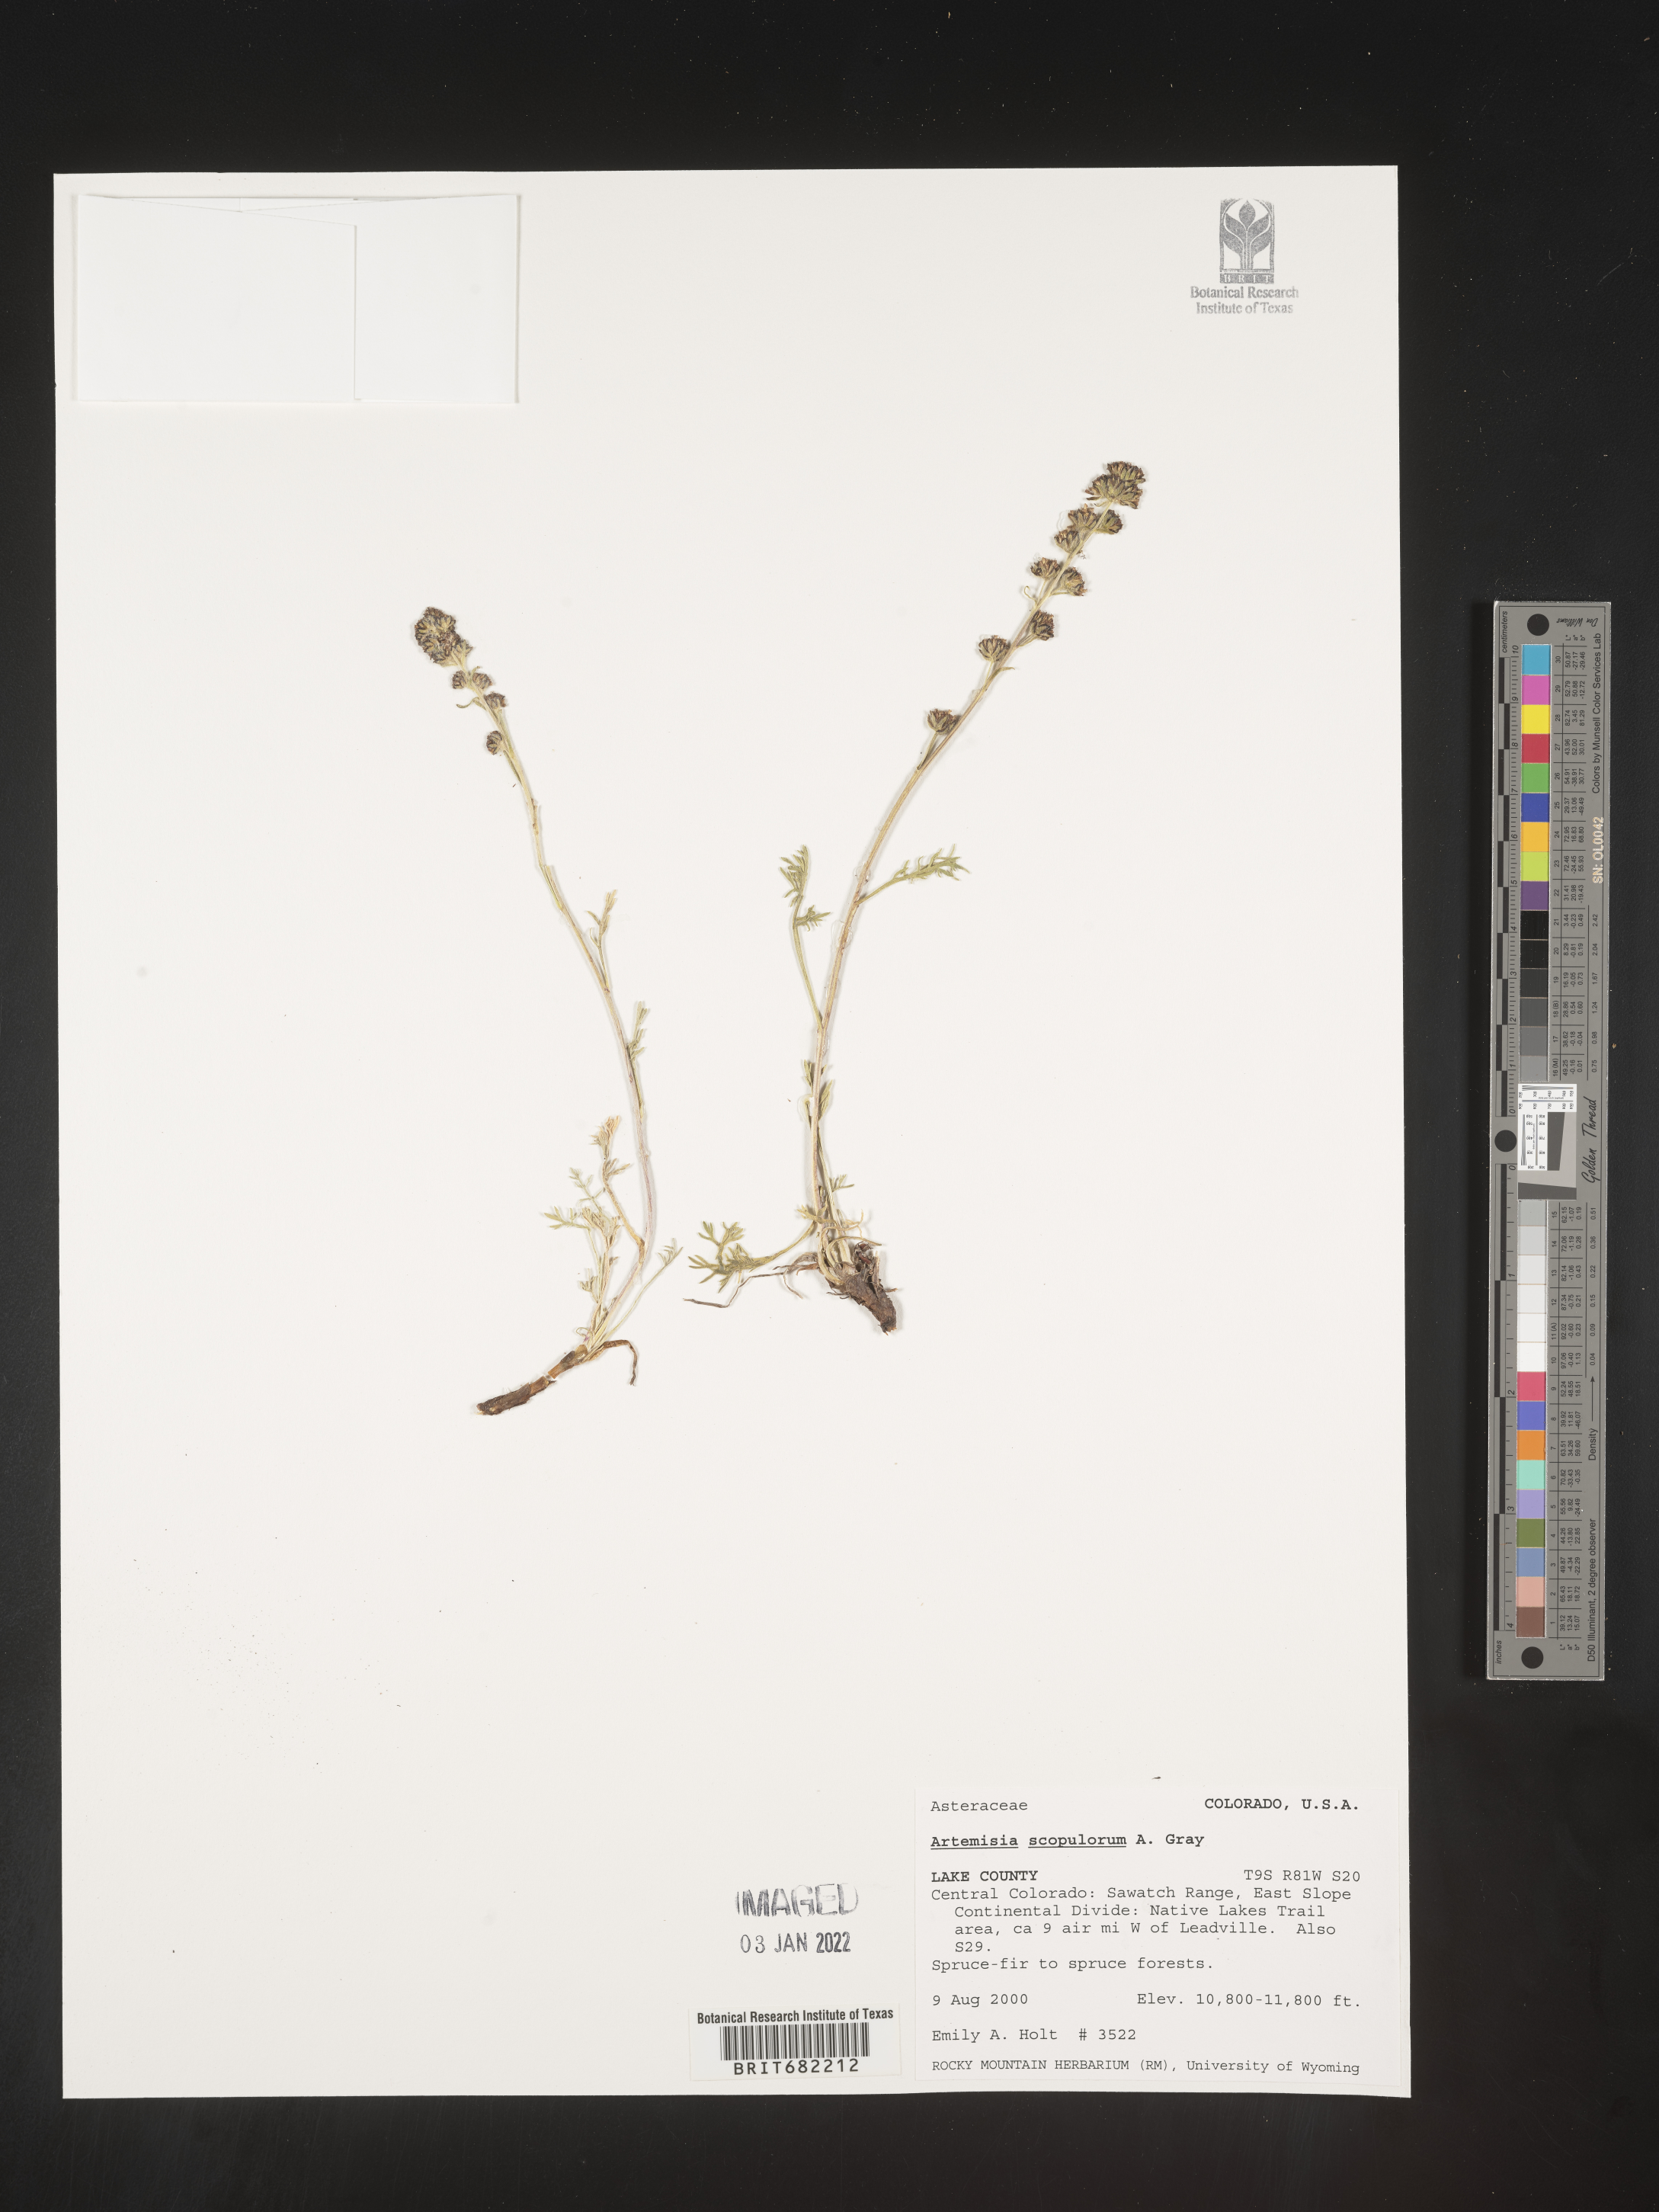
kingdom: Plantae
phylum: Tracheophyta
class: Magnoliopsida
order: Asterales
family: Asteraceae
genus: Artemisia
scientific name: Artemisia scopulorum
